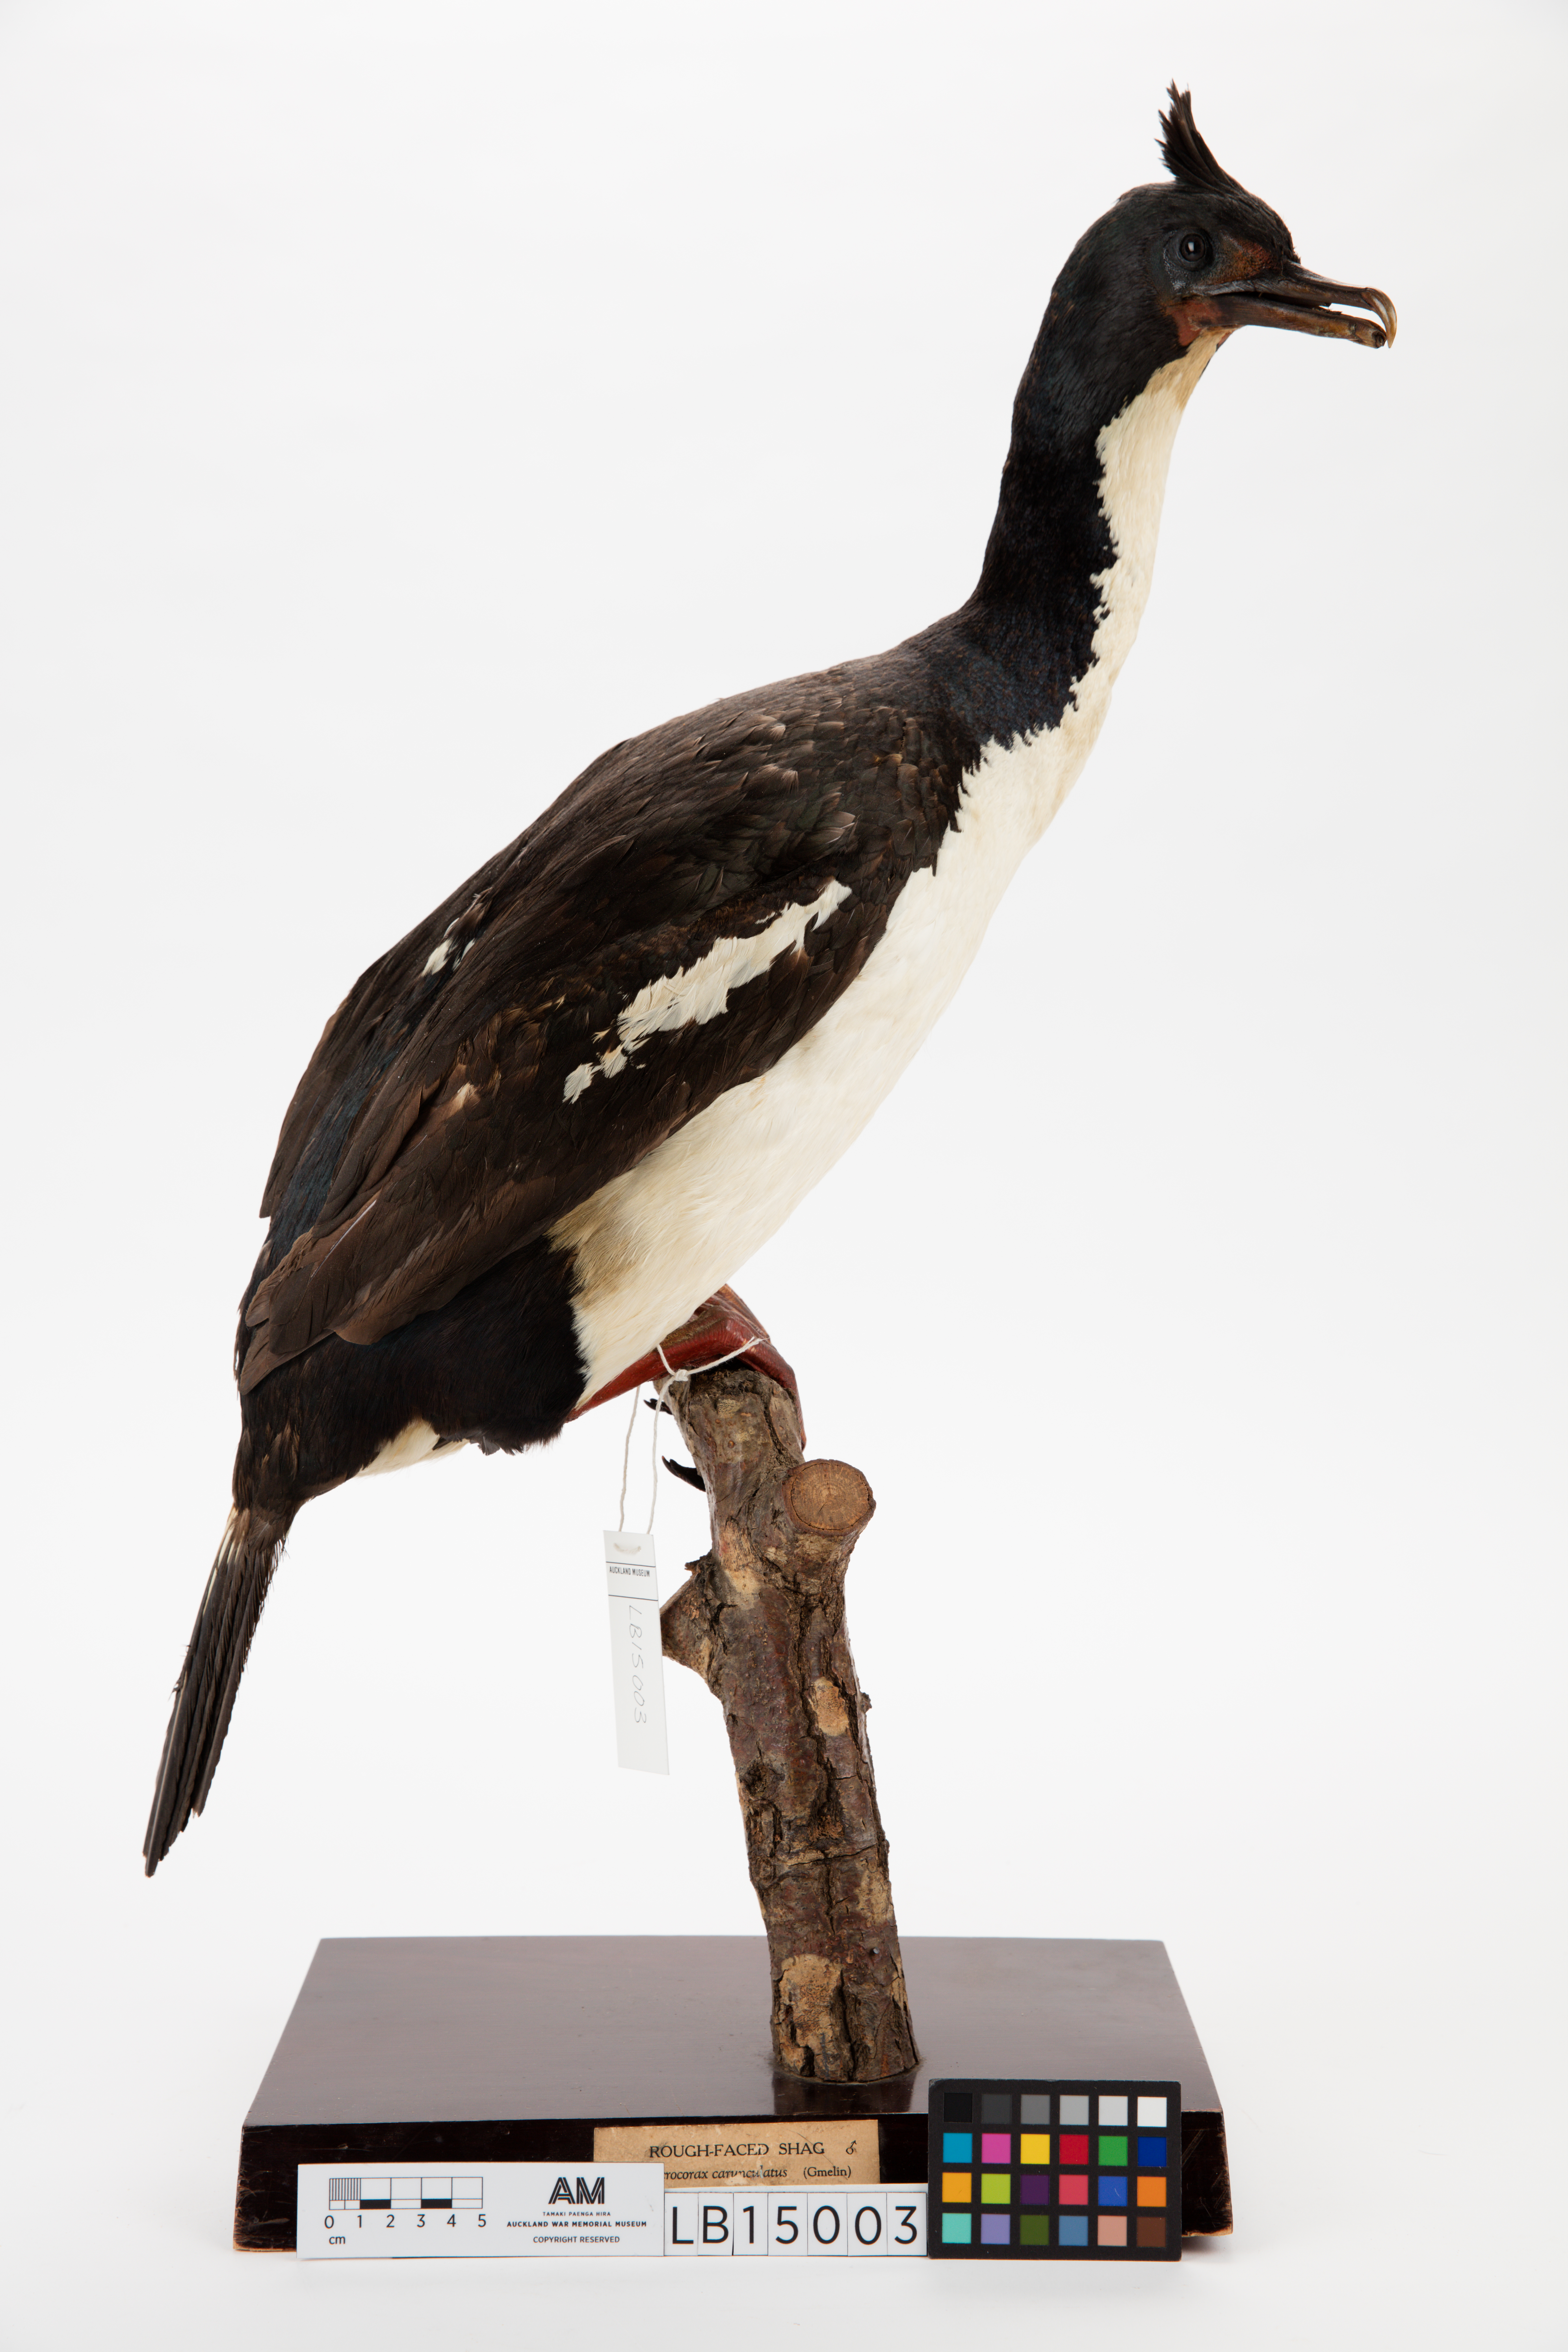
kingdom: Animalia
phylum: Chordata
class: Aves
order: Suliformes
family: Phalacrocoracidae
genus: Leucocarbo
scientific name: Leucocarbo carunculatus
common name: Rough-faced shag
